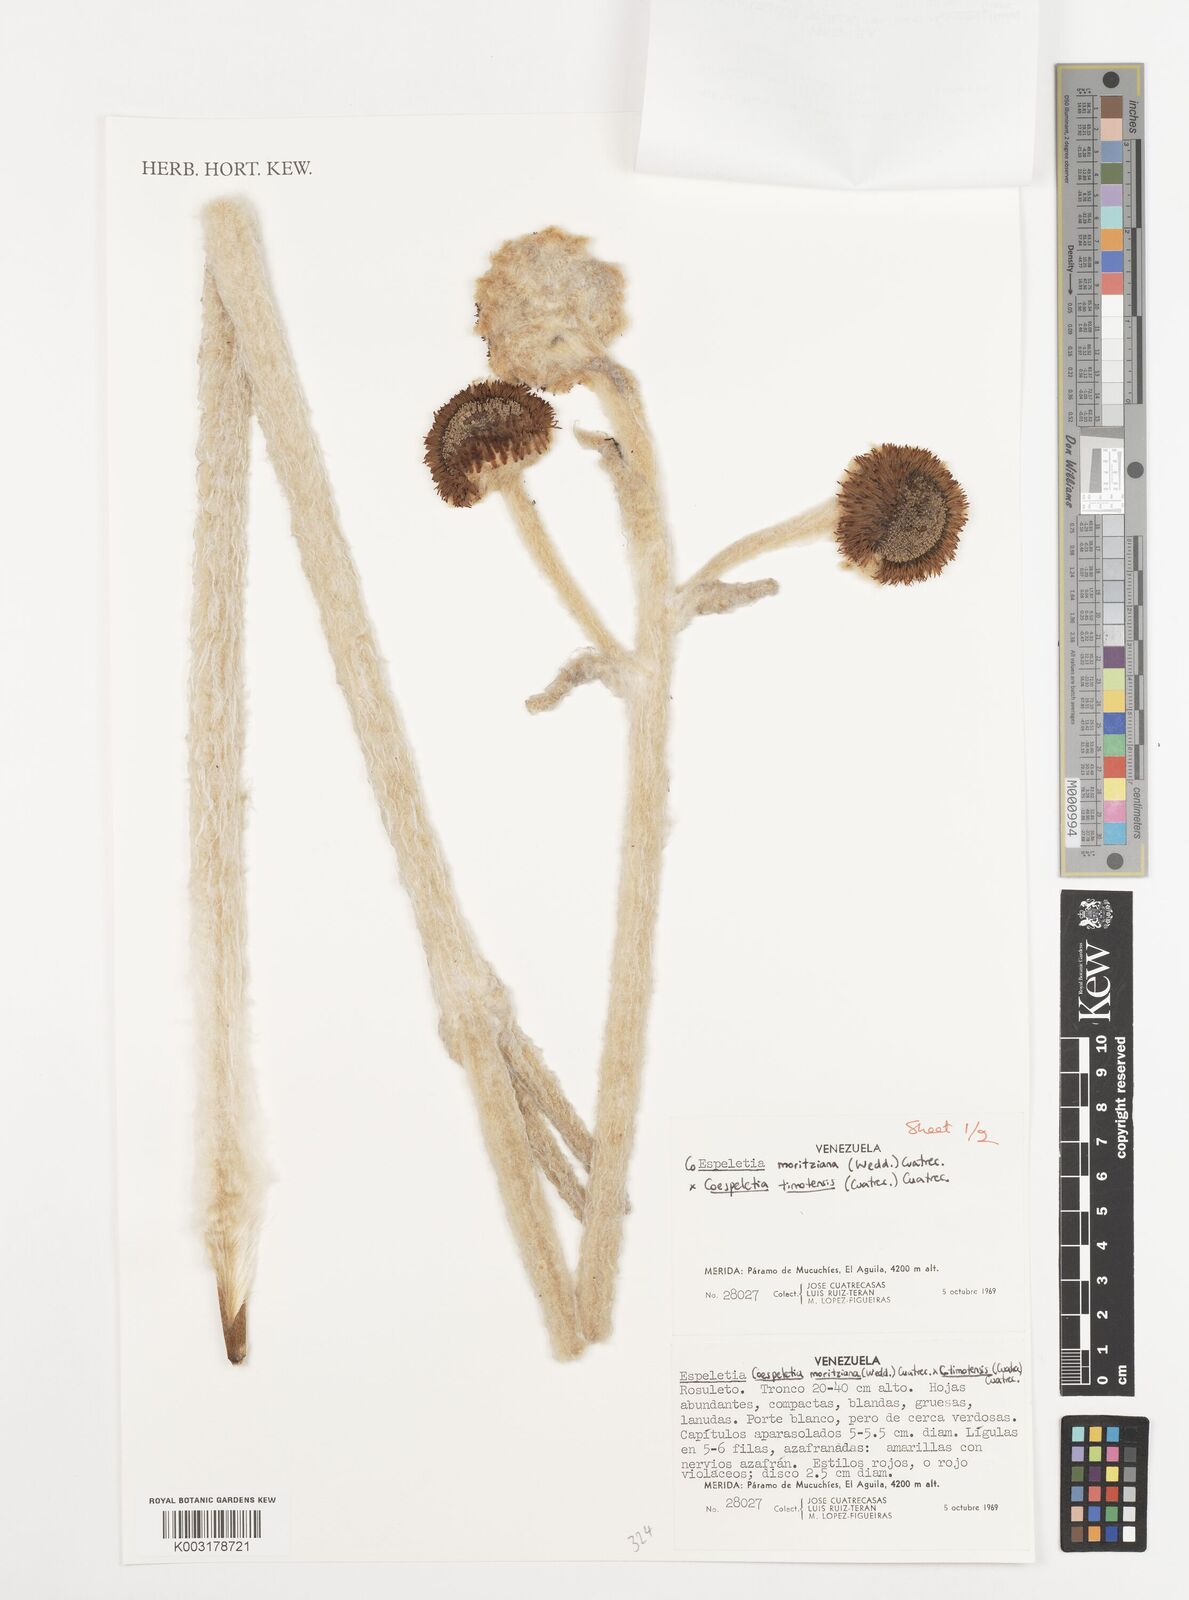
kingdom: Plantae
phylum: Tracheophyta
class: Magnoliopsida
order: Asterales
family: Asteraceae
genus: Espeletia
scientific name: Espeletia
